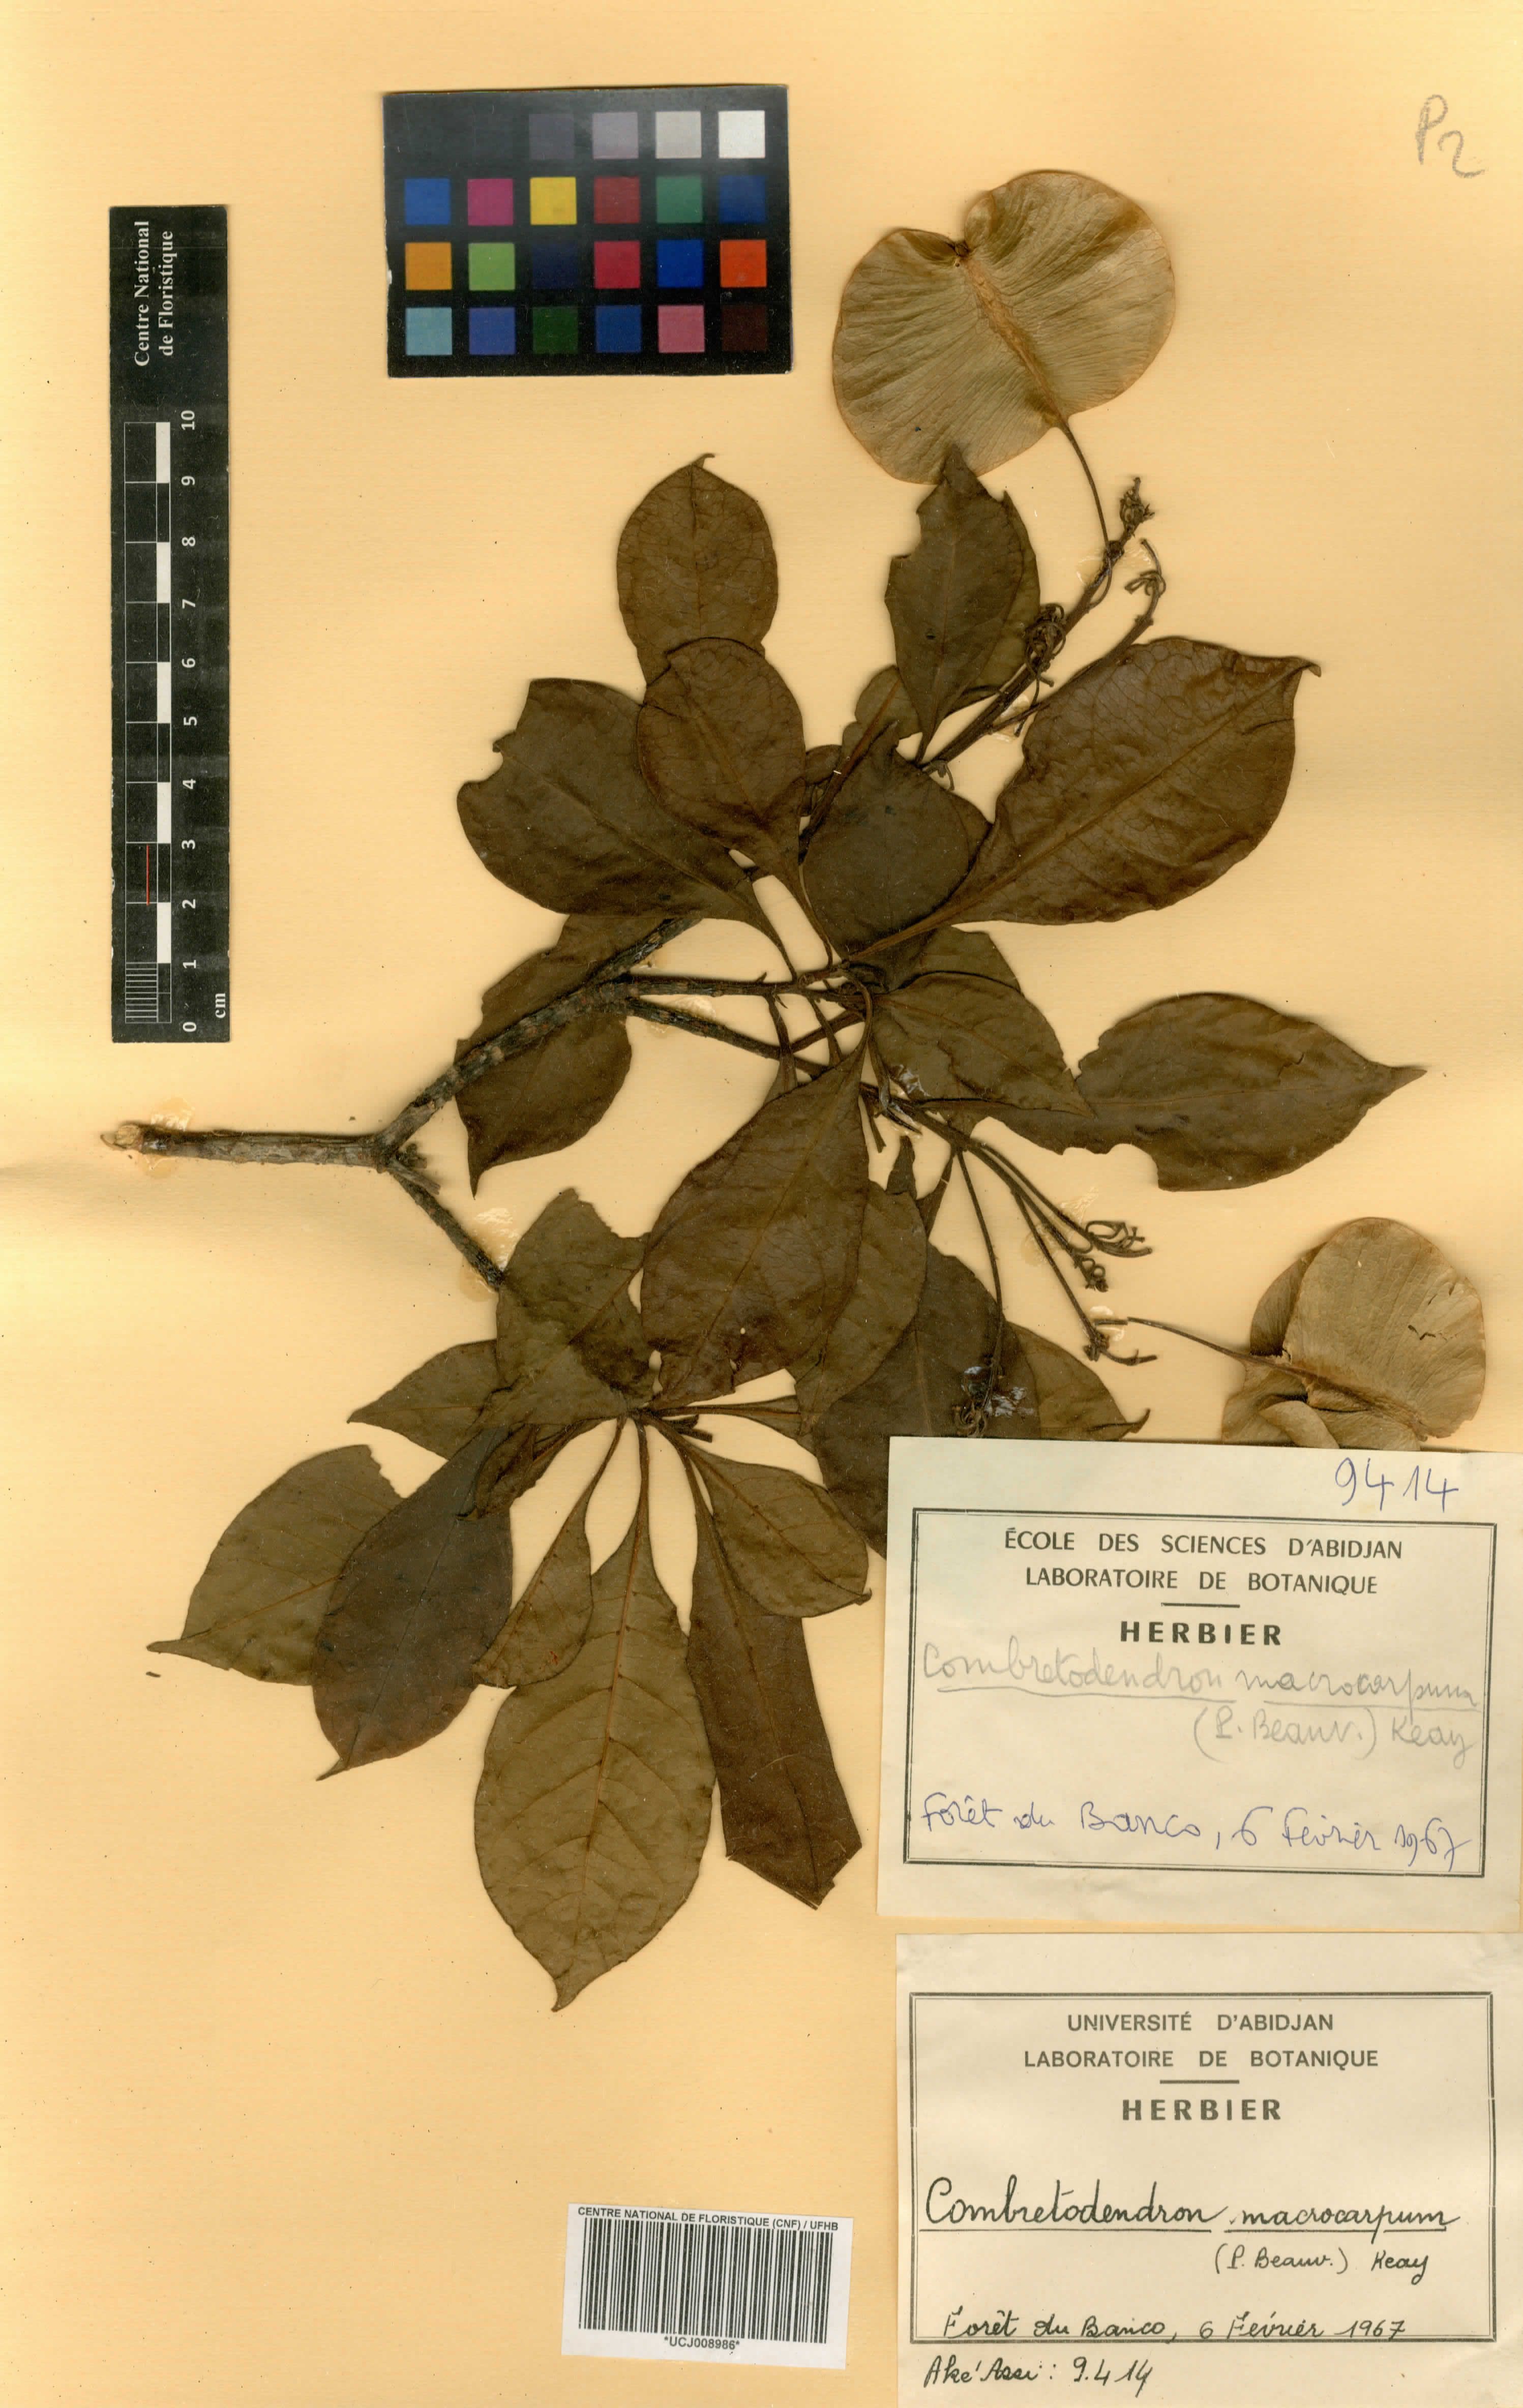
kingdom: Plantae
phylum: Tracheophyta
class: Magnoliopsida
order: Ericales
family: Lecythidaceae
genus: Petersianthus
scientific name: Petersianthus macrocarpus
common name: Essia
